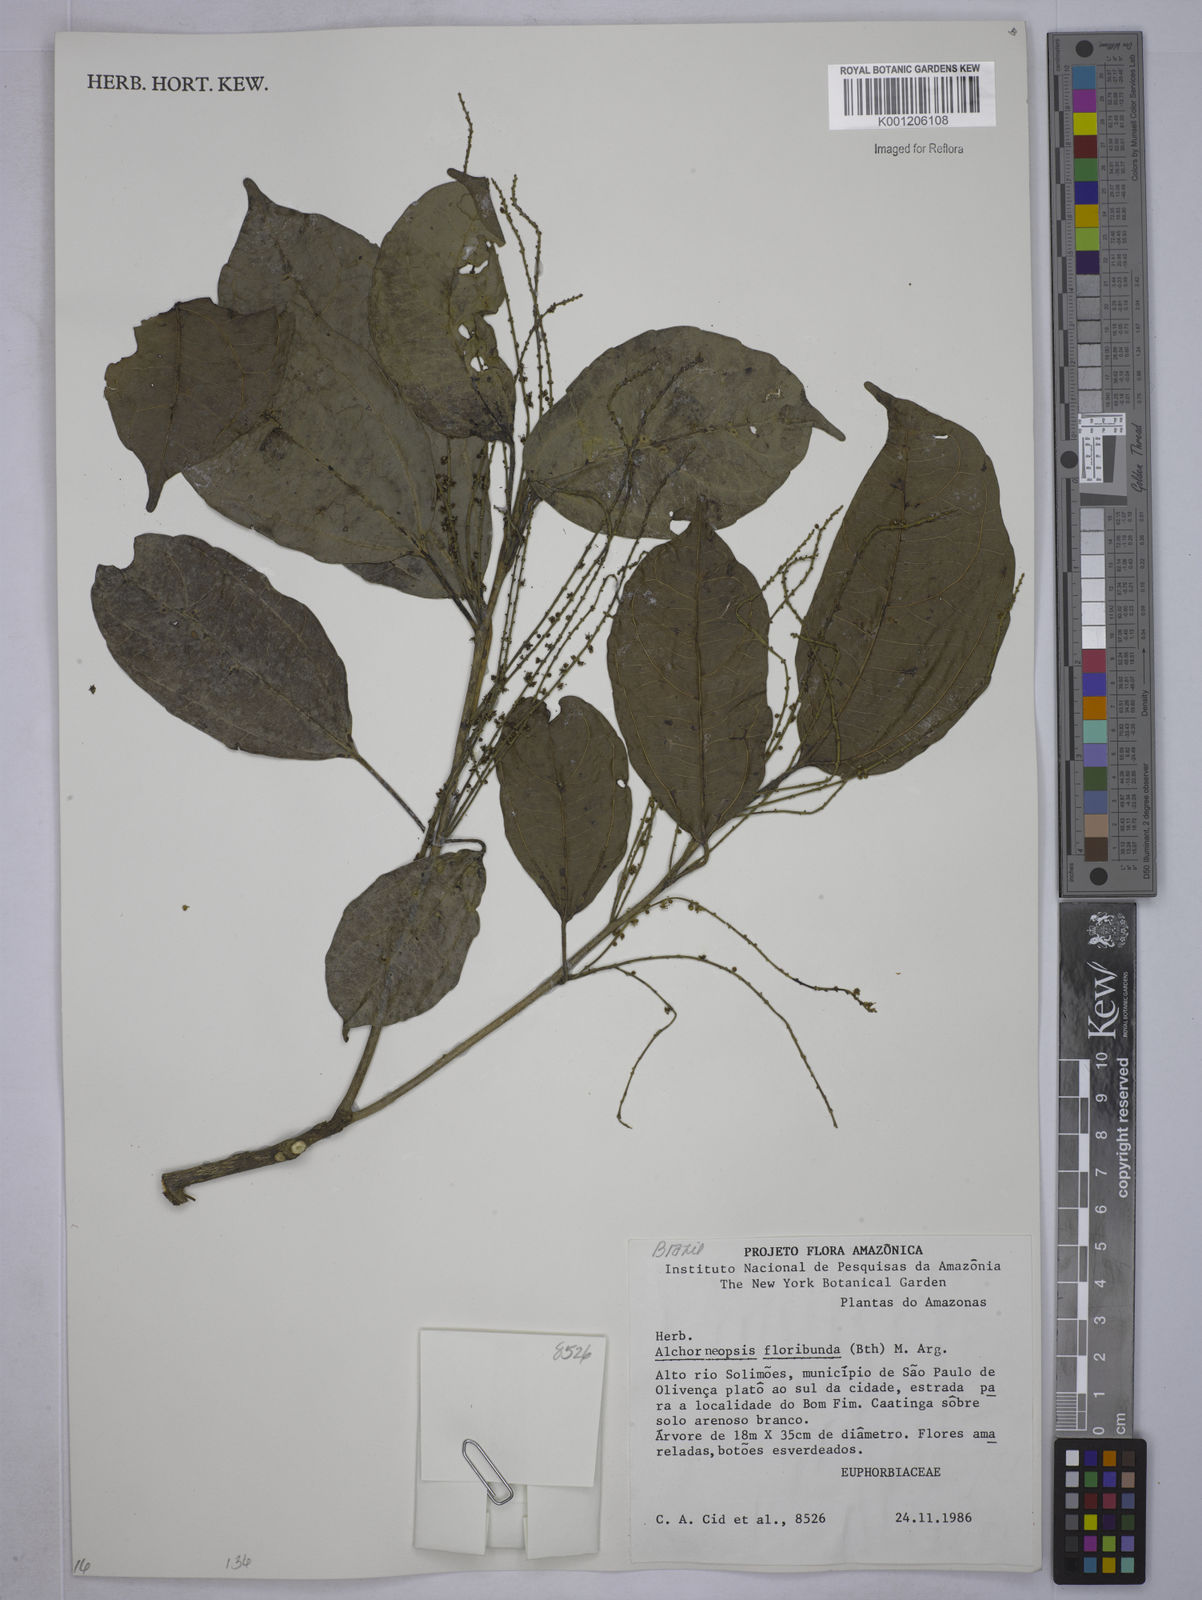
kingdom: Plantae
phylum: Tracheophyta
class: Magnoliopsida
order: Malpighiales
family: Euphorbiaceae
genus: Alchorneopsis
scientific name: Alchorneopsis
